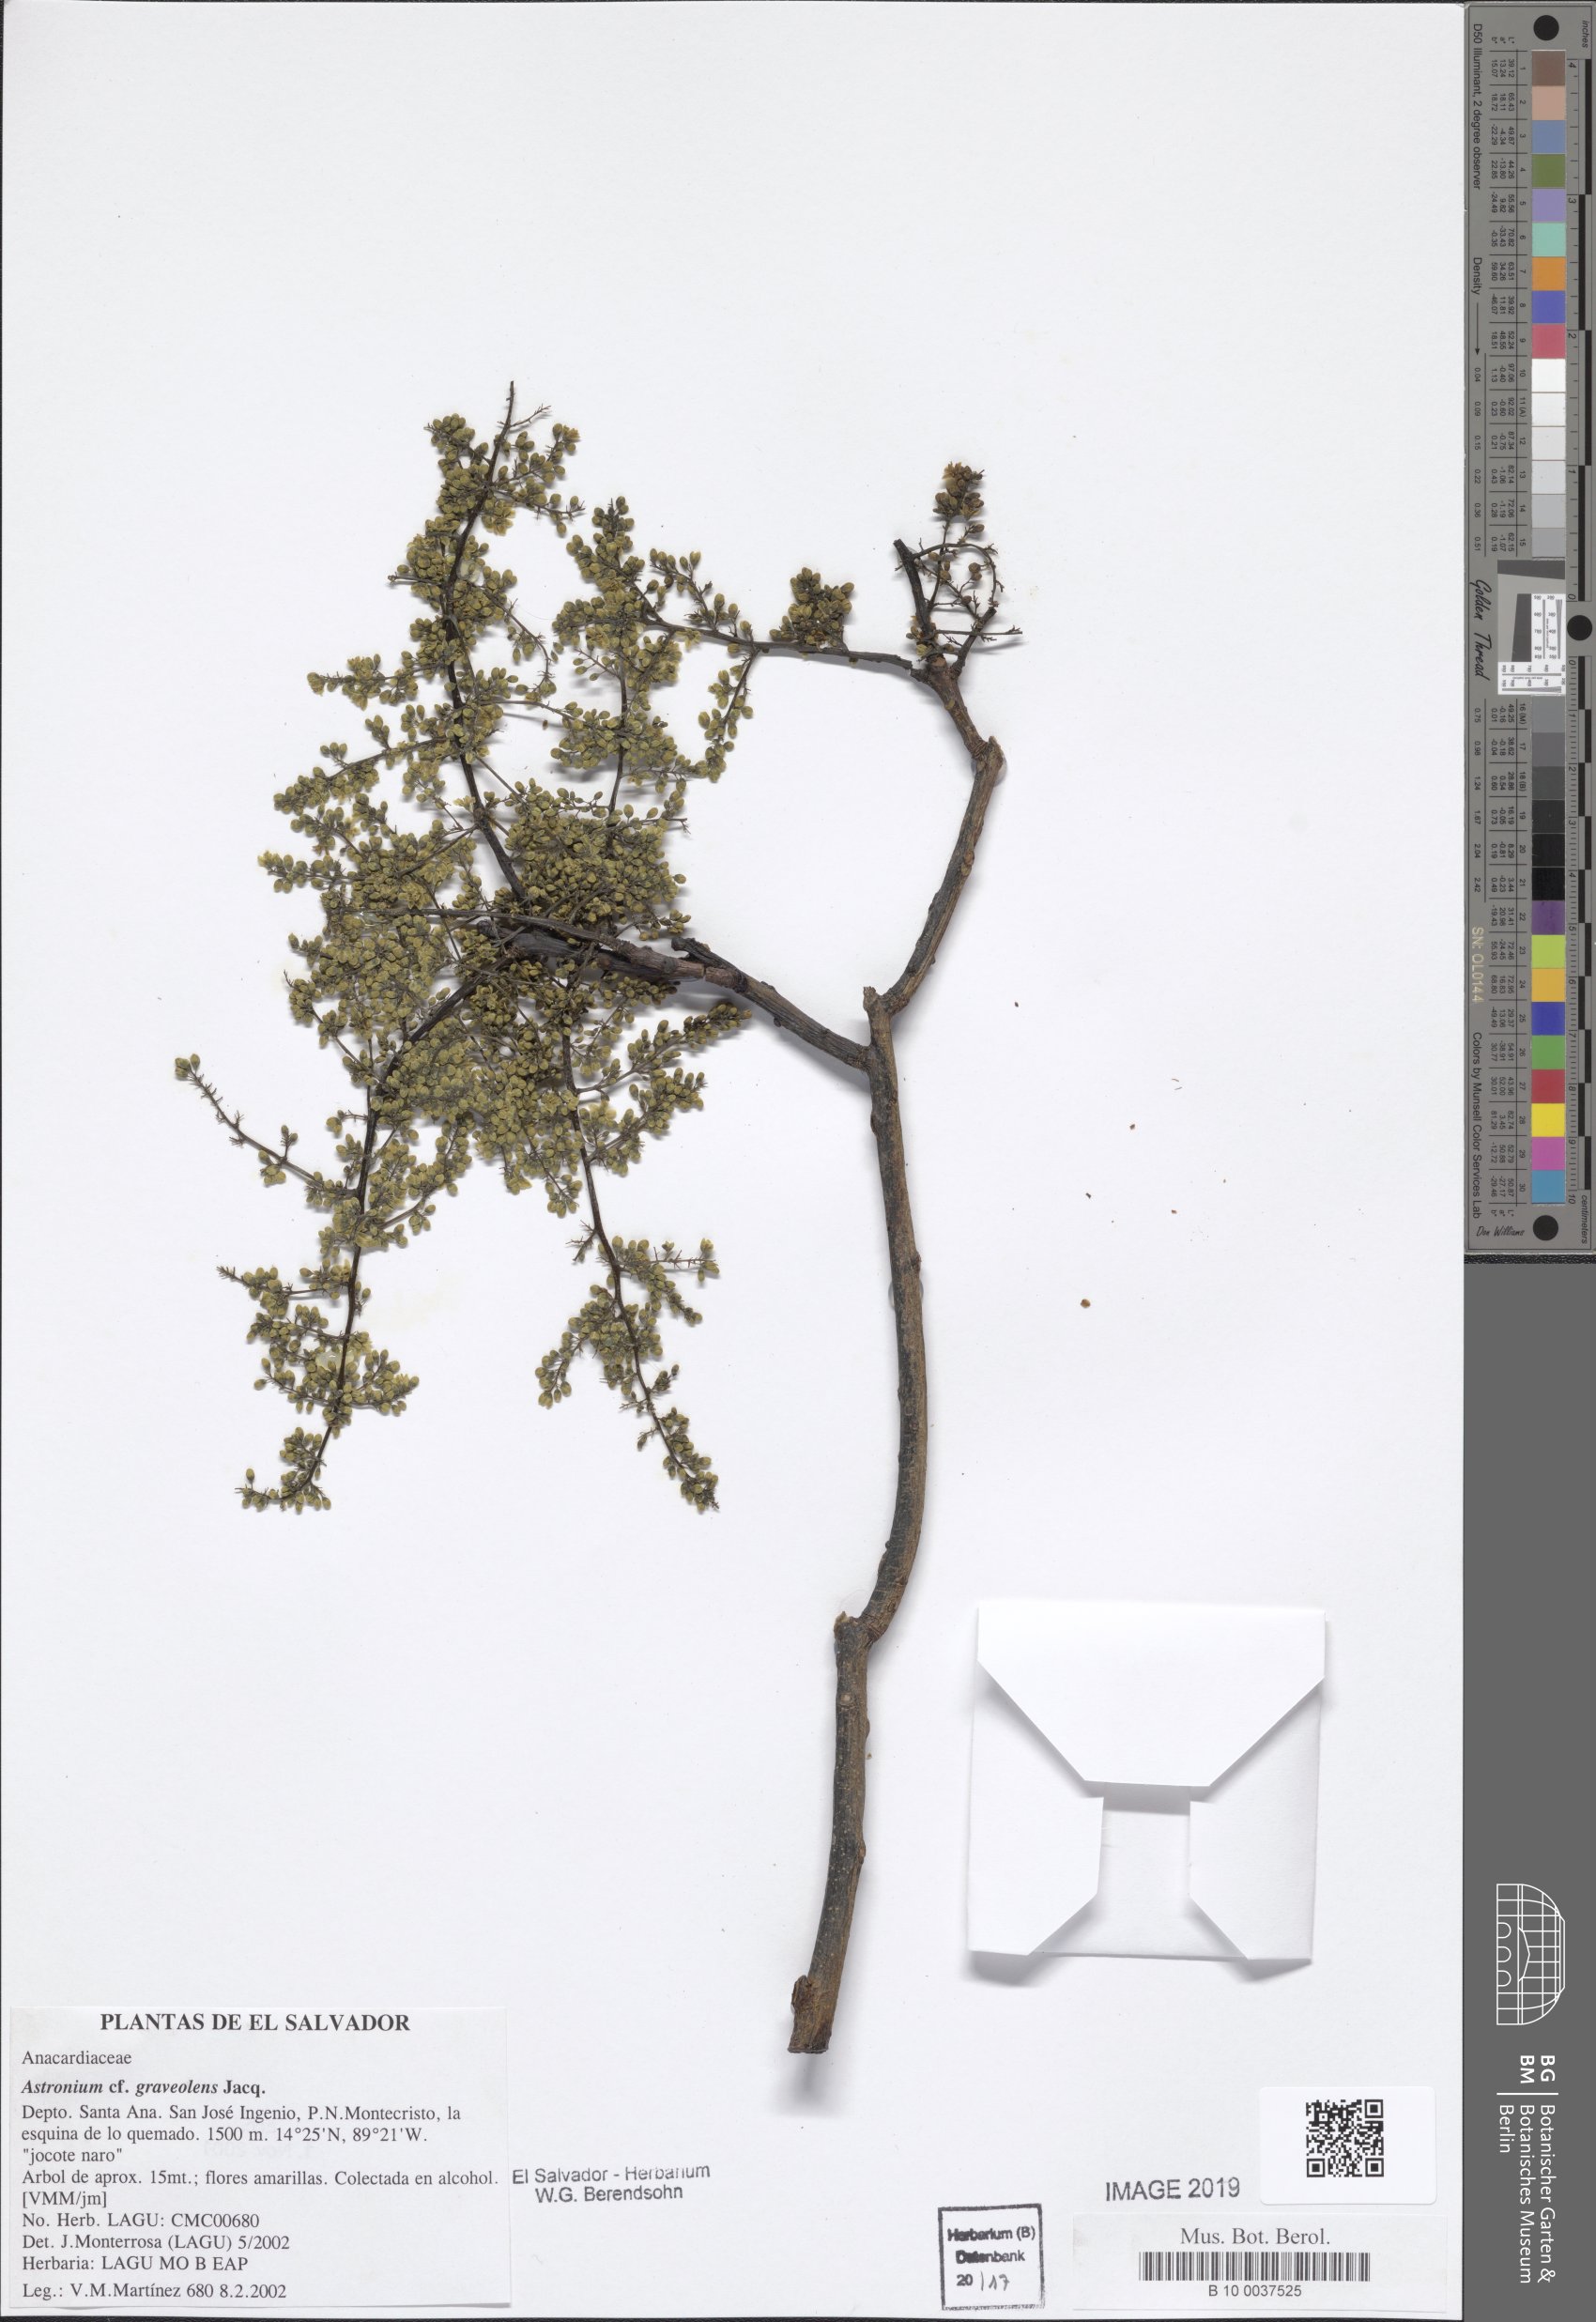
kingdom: Plantae
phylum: Tracheophyta
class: Magnoliopsida
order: Sapindales
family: Anacardiaceae
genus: Astronium
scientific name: Astronium graveolens
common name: Glassywood
